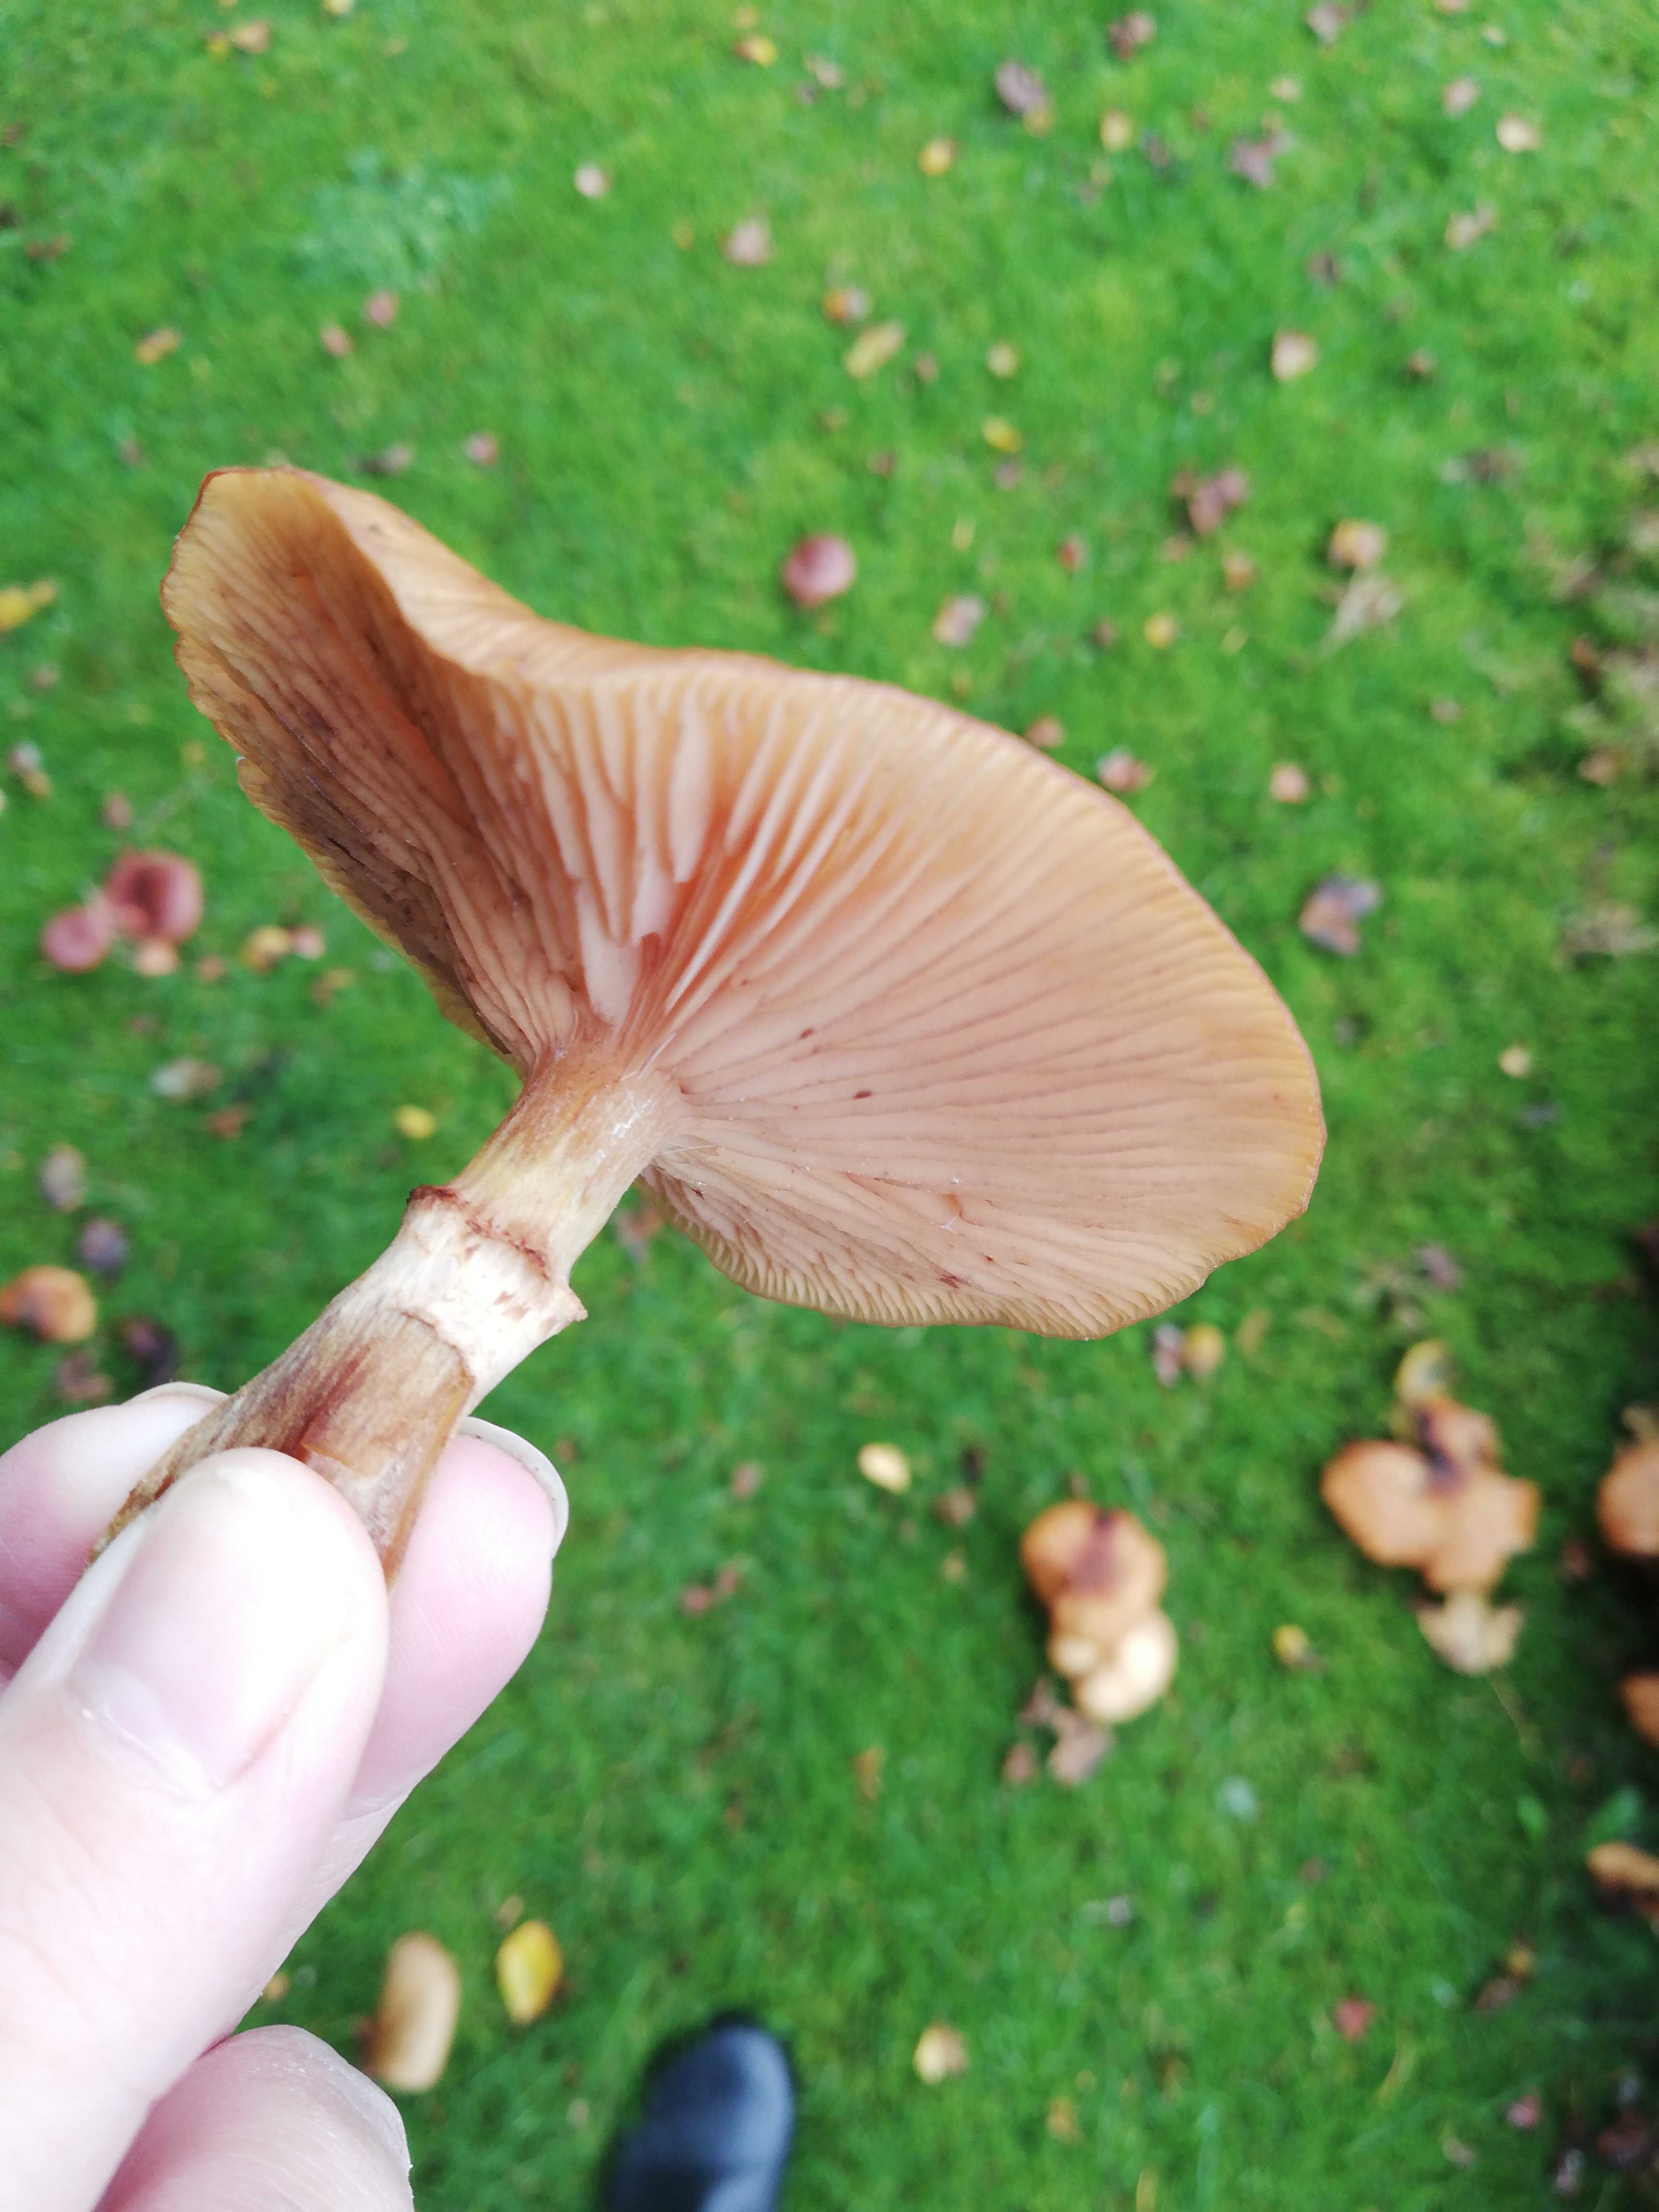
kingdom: Fungi
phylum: Basidiomycota
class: Agaricomycetes
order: Agaricales
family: Physalacriaceae
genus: Armillaria
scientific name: Armillaria
